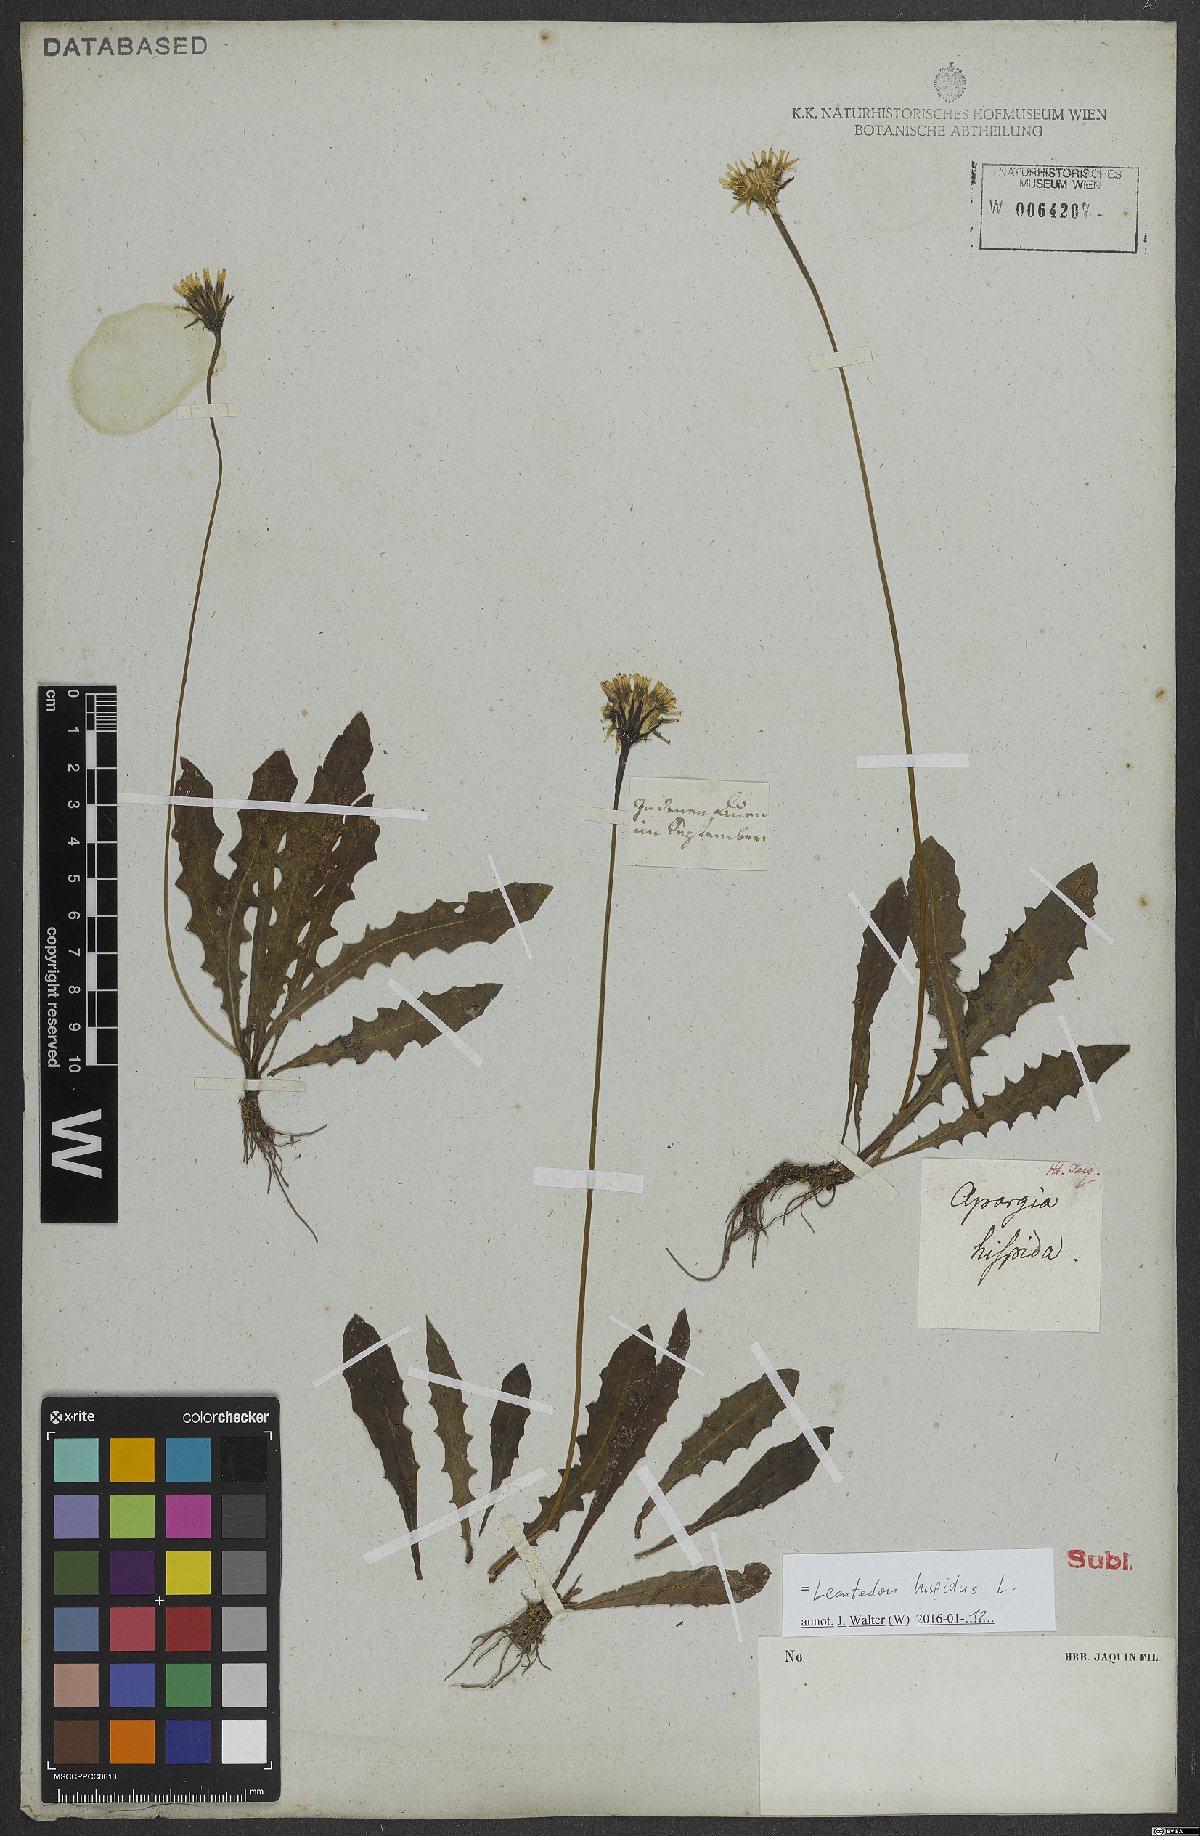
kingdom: Plantae
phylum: Tracheophyta
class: Magnoliopsida
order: Asterales
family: Asteraceae
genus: Leontodon
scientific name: Leontodon hispidus
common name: Rough hawkbit
